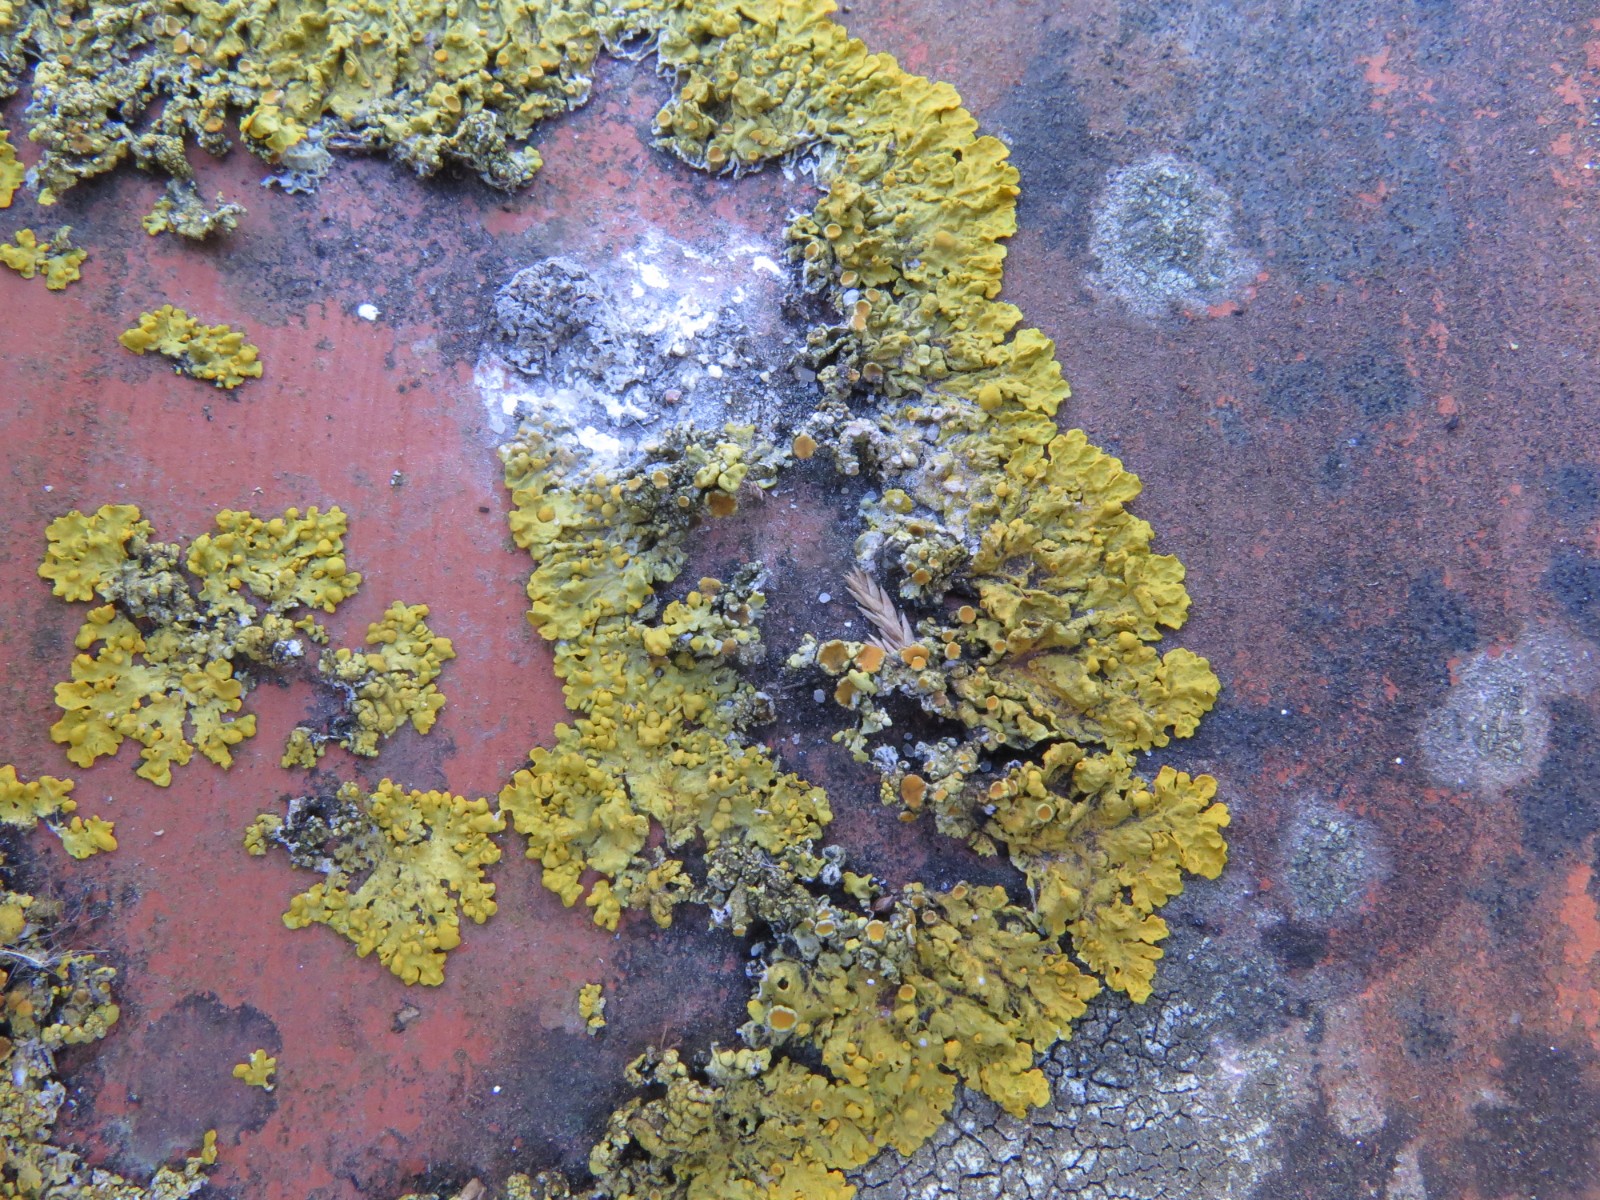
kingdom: Fungi
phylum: Ascomycota
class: Dothideomycetes
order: Mycosphaerellales
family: Teratosphaeriaceae
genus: Xanthoriicola
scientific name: Xanthoriicola physciae
